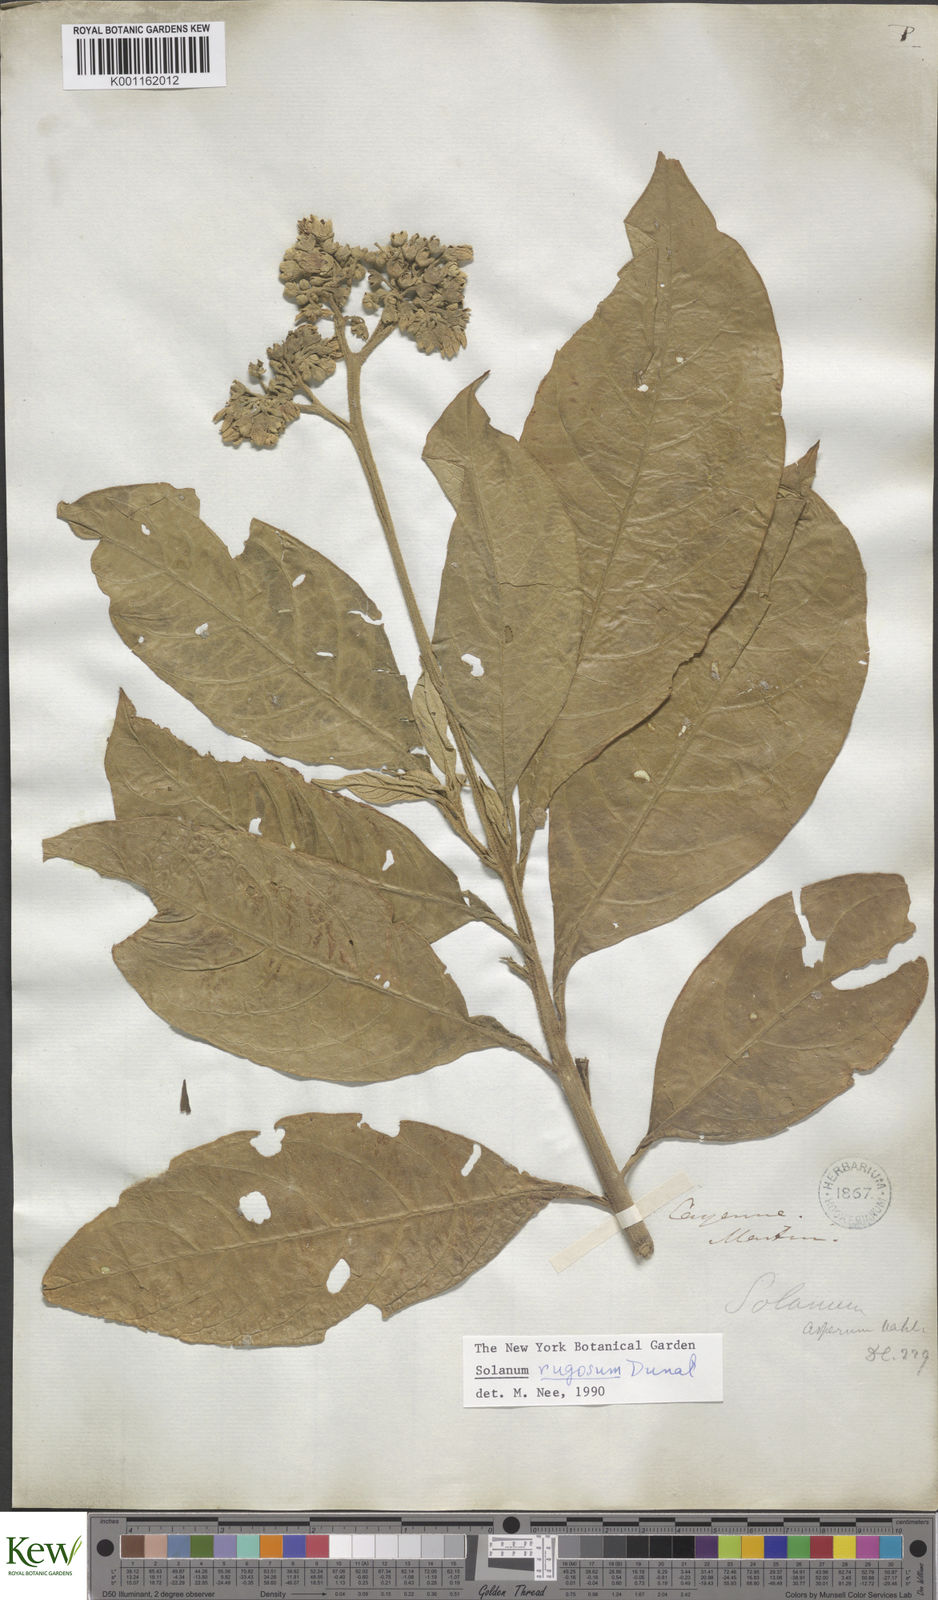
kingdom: Plantae
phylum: Tracheophyta
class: Magnoliopsida
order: Solanales
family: Solanaceae
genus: Solanum
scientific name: Solanum rugosum
